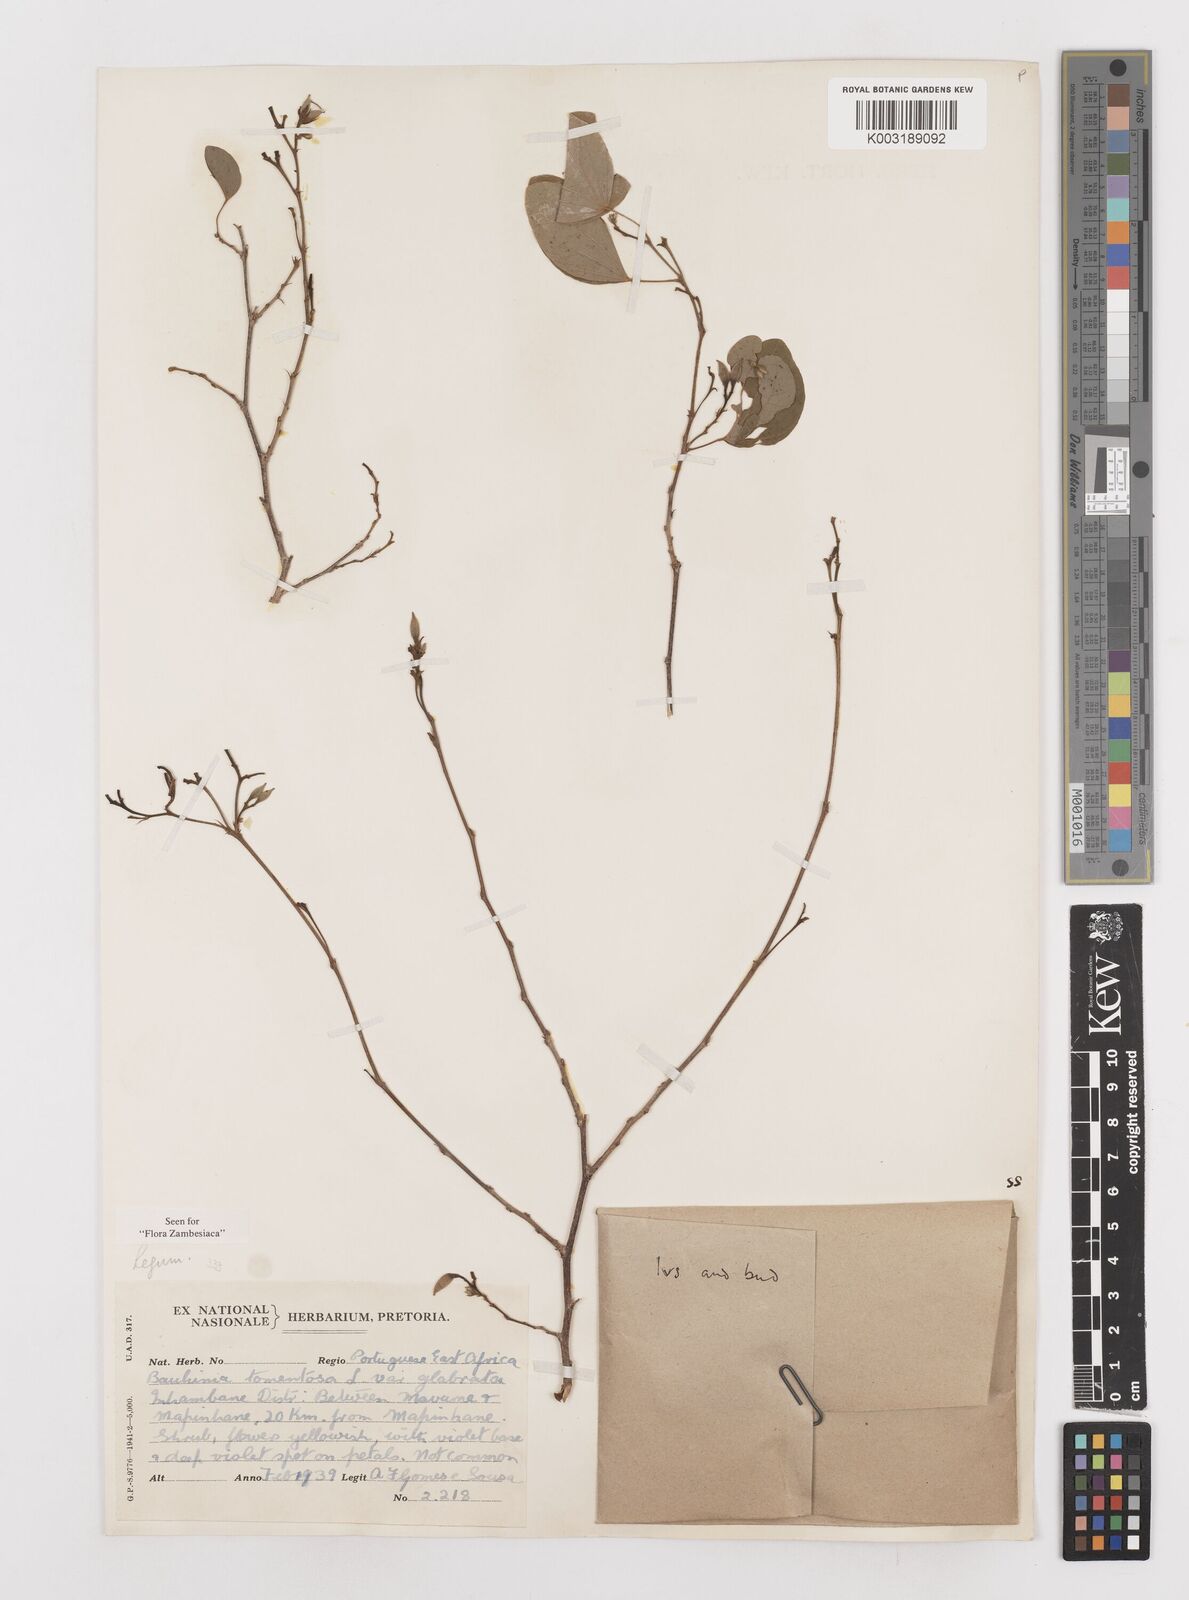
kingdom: Plantae
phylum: Tracheophyta
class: Magnoliopsida
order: Fabales
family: Fabaceae
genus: Bauhinia
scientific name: Bauhinia tomentosa
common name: Bell bauhinia
